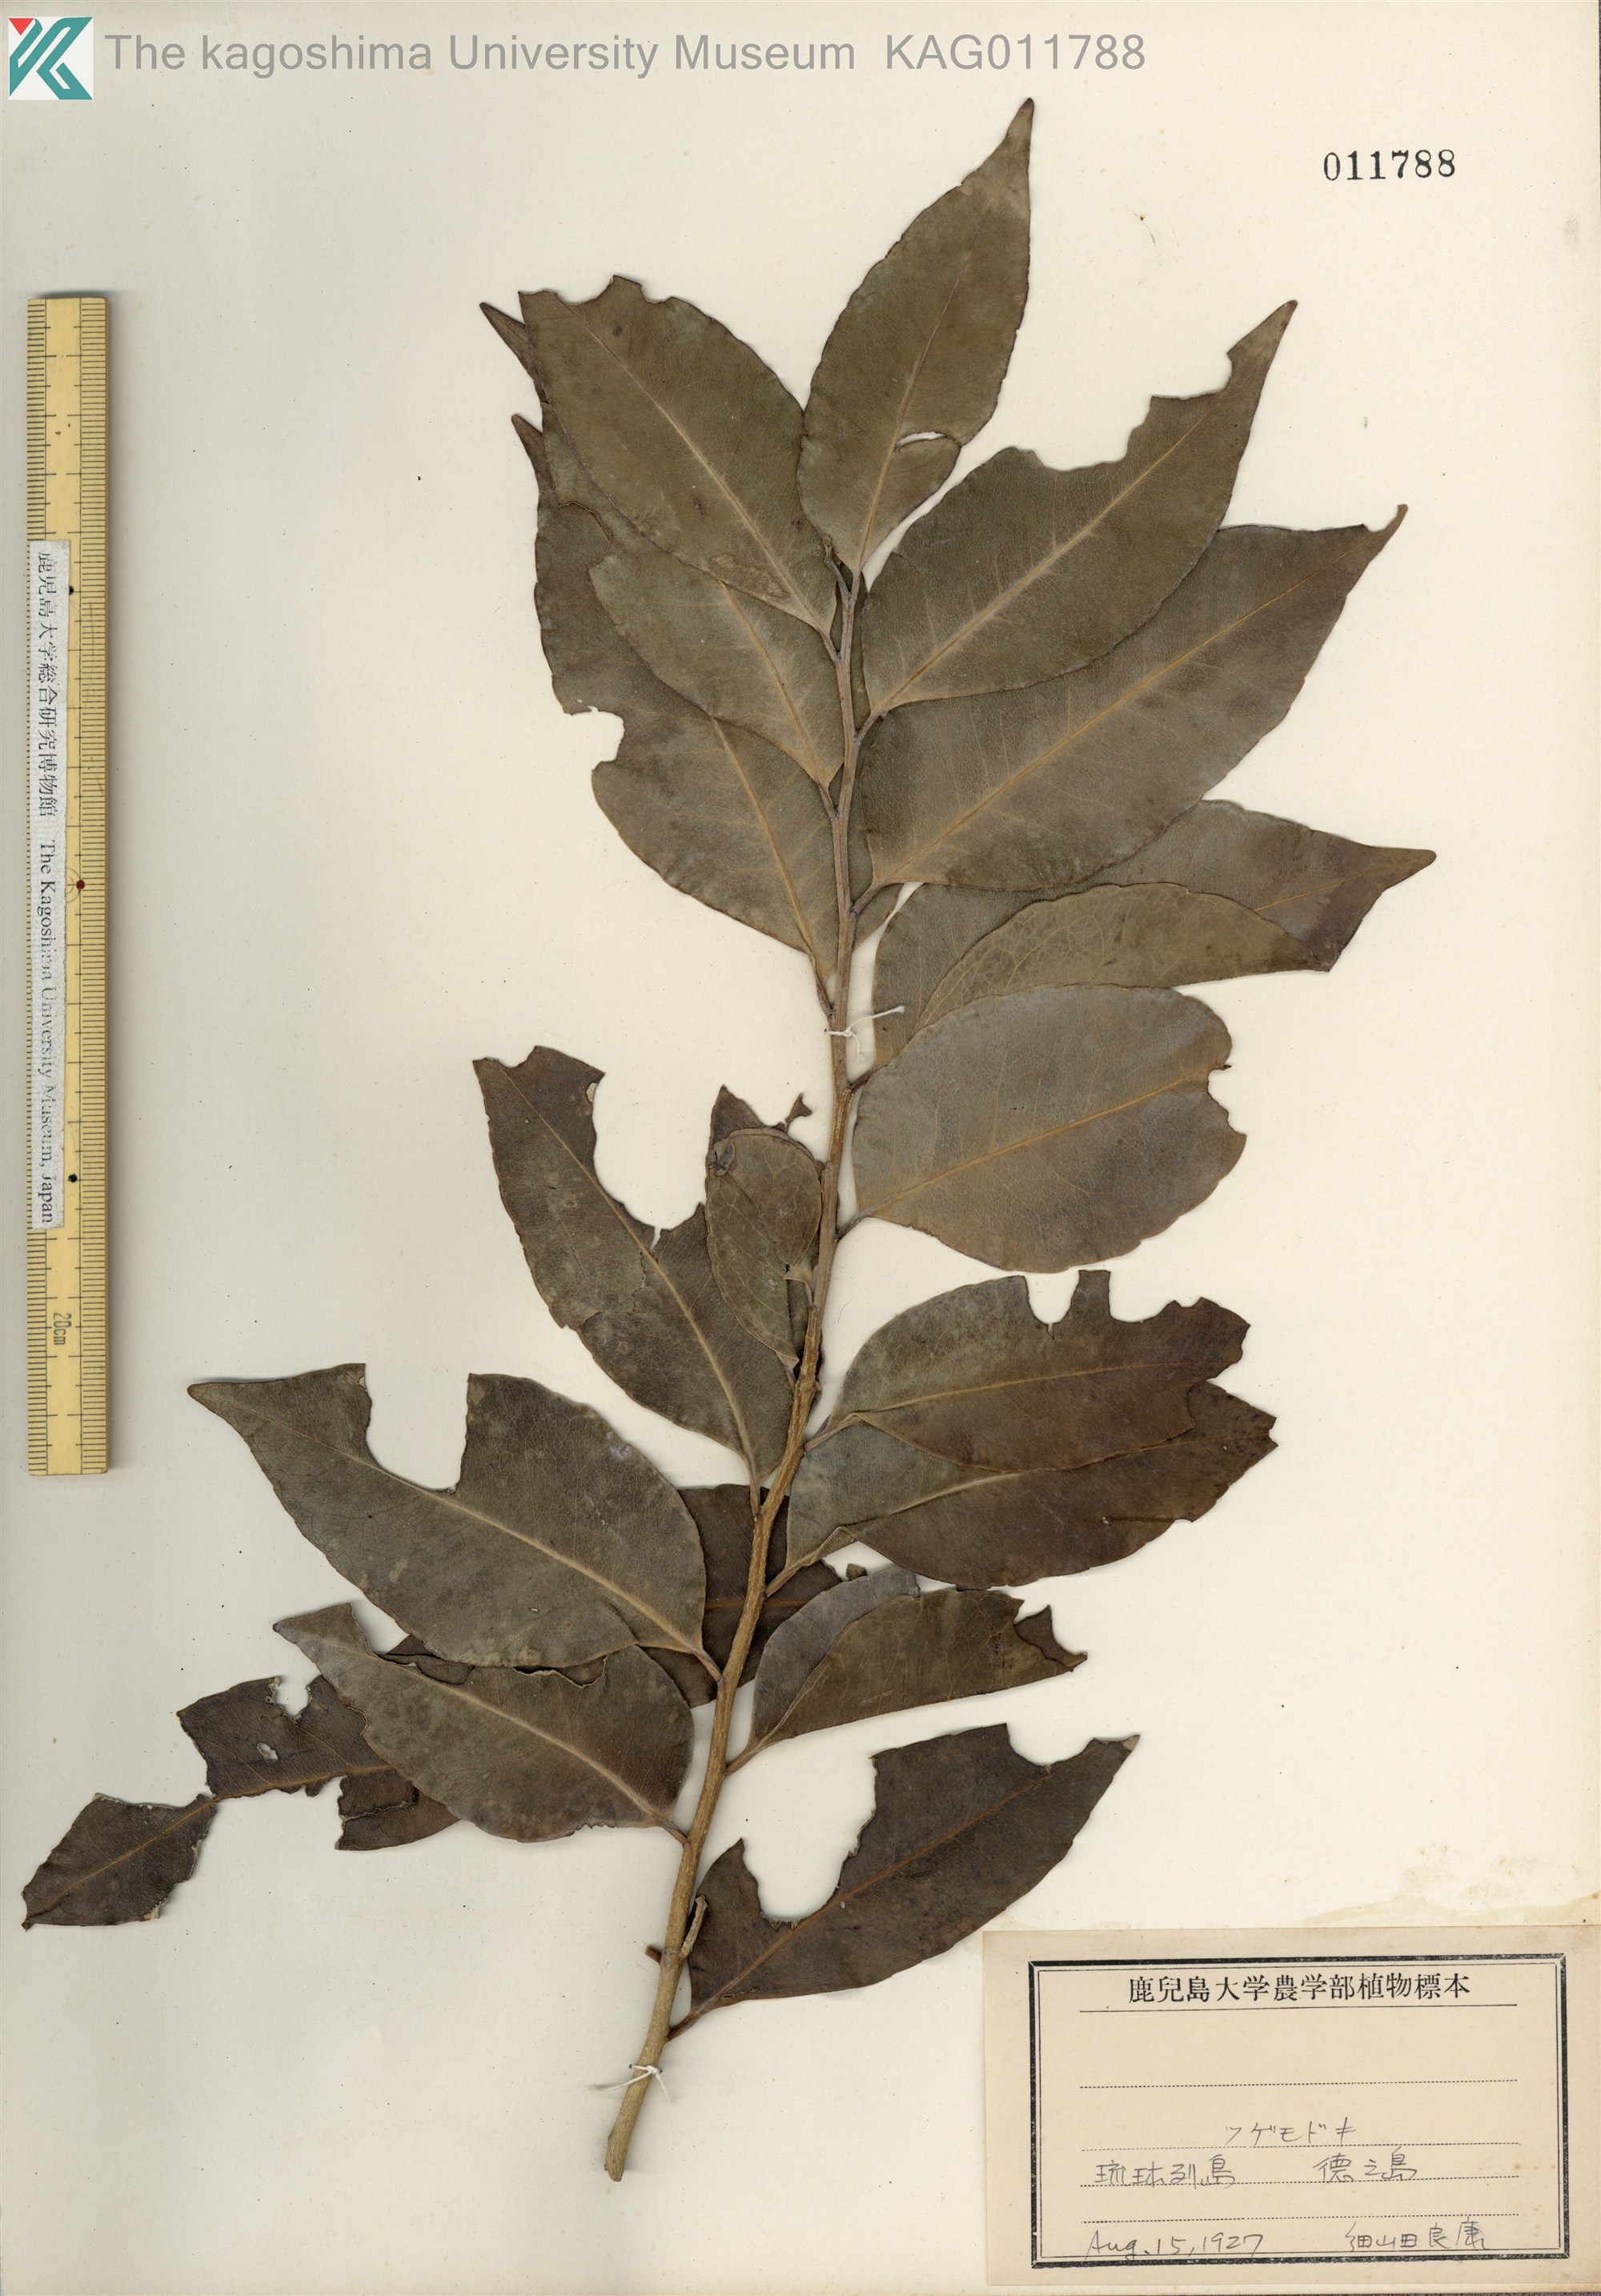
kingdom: Plantae
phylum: Tracheophyta
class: Magnoliopsida
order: Malpighiales
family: Putranjivaceae
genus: Putranjiva
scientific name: Putranjiva matsumurae
